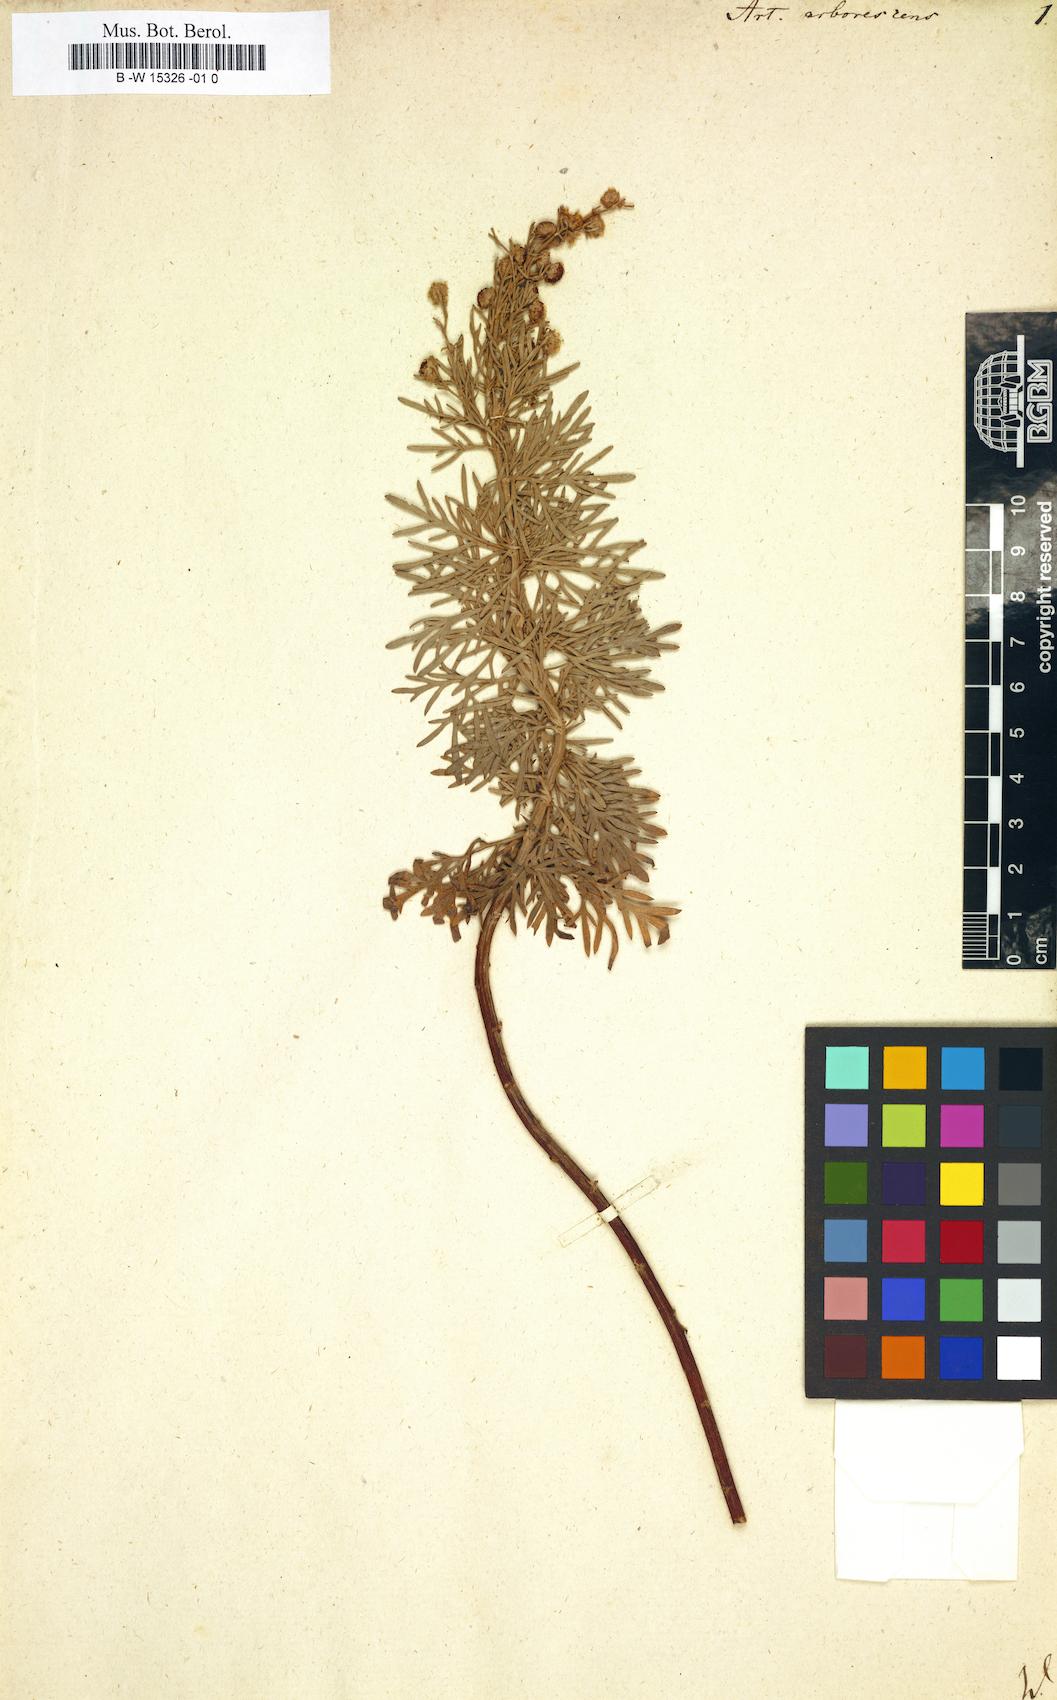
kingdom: Plantae
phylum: Tracheophyta
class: Magnoliopsida
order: Asterales
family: Asteraceae
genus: Artemisia
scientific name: Artemisia arborescens
